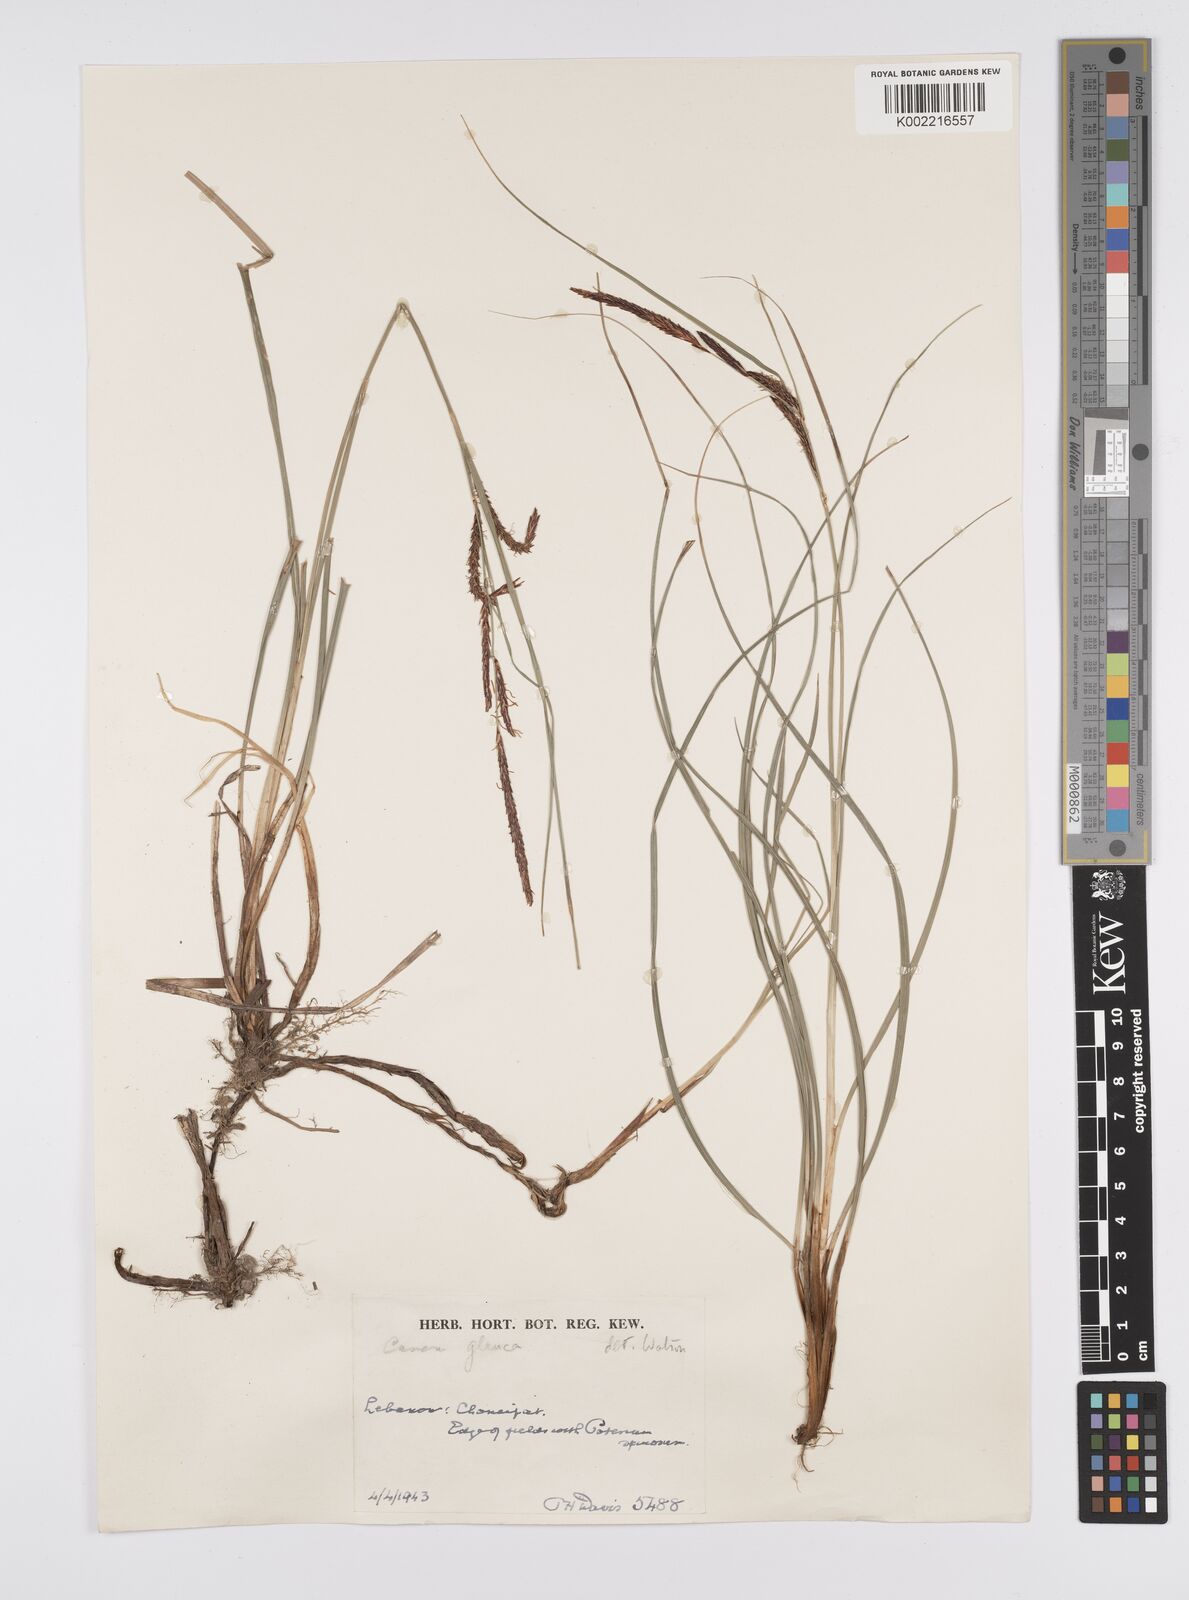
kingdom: Plantae
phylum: Tracheophyta
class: Liliopsida
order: Poales
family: Cyperaceae
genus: Carex
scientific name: Carex flacca
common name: Glaucous sedge
